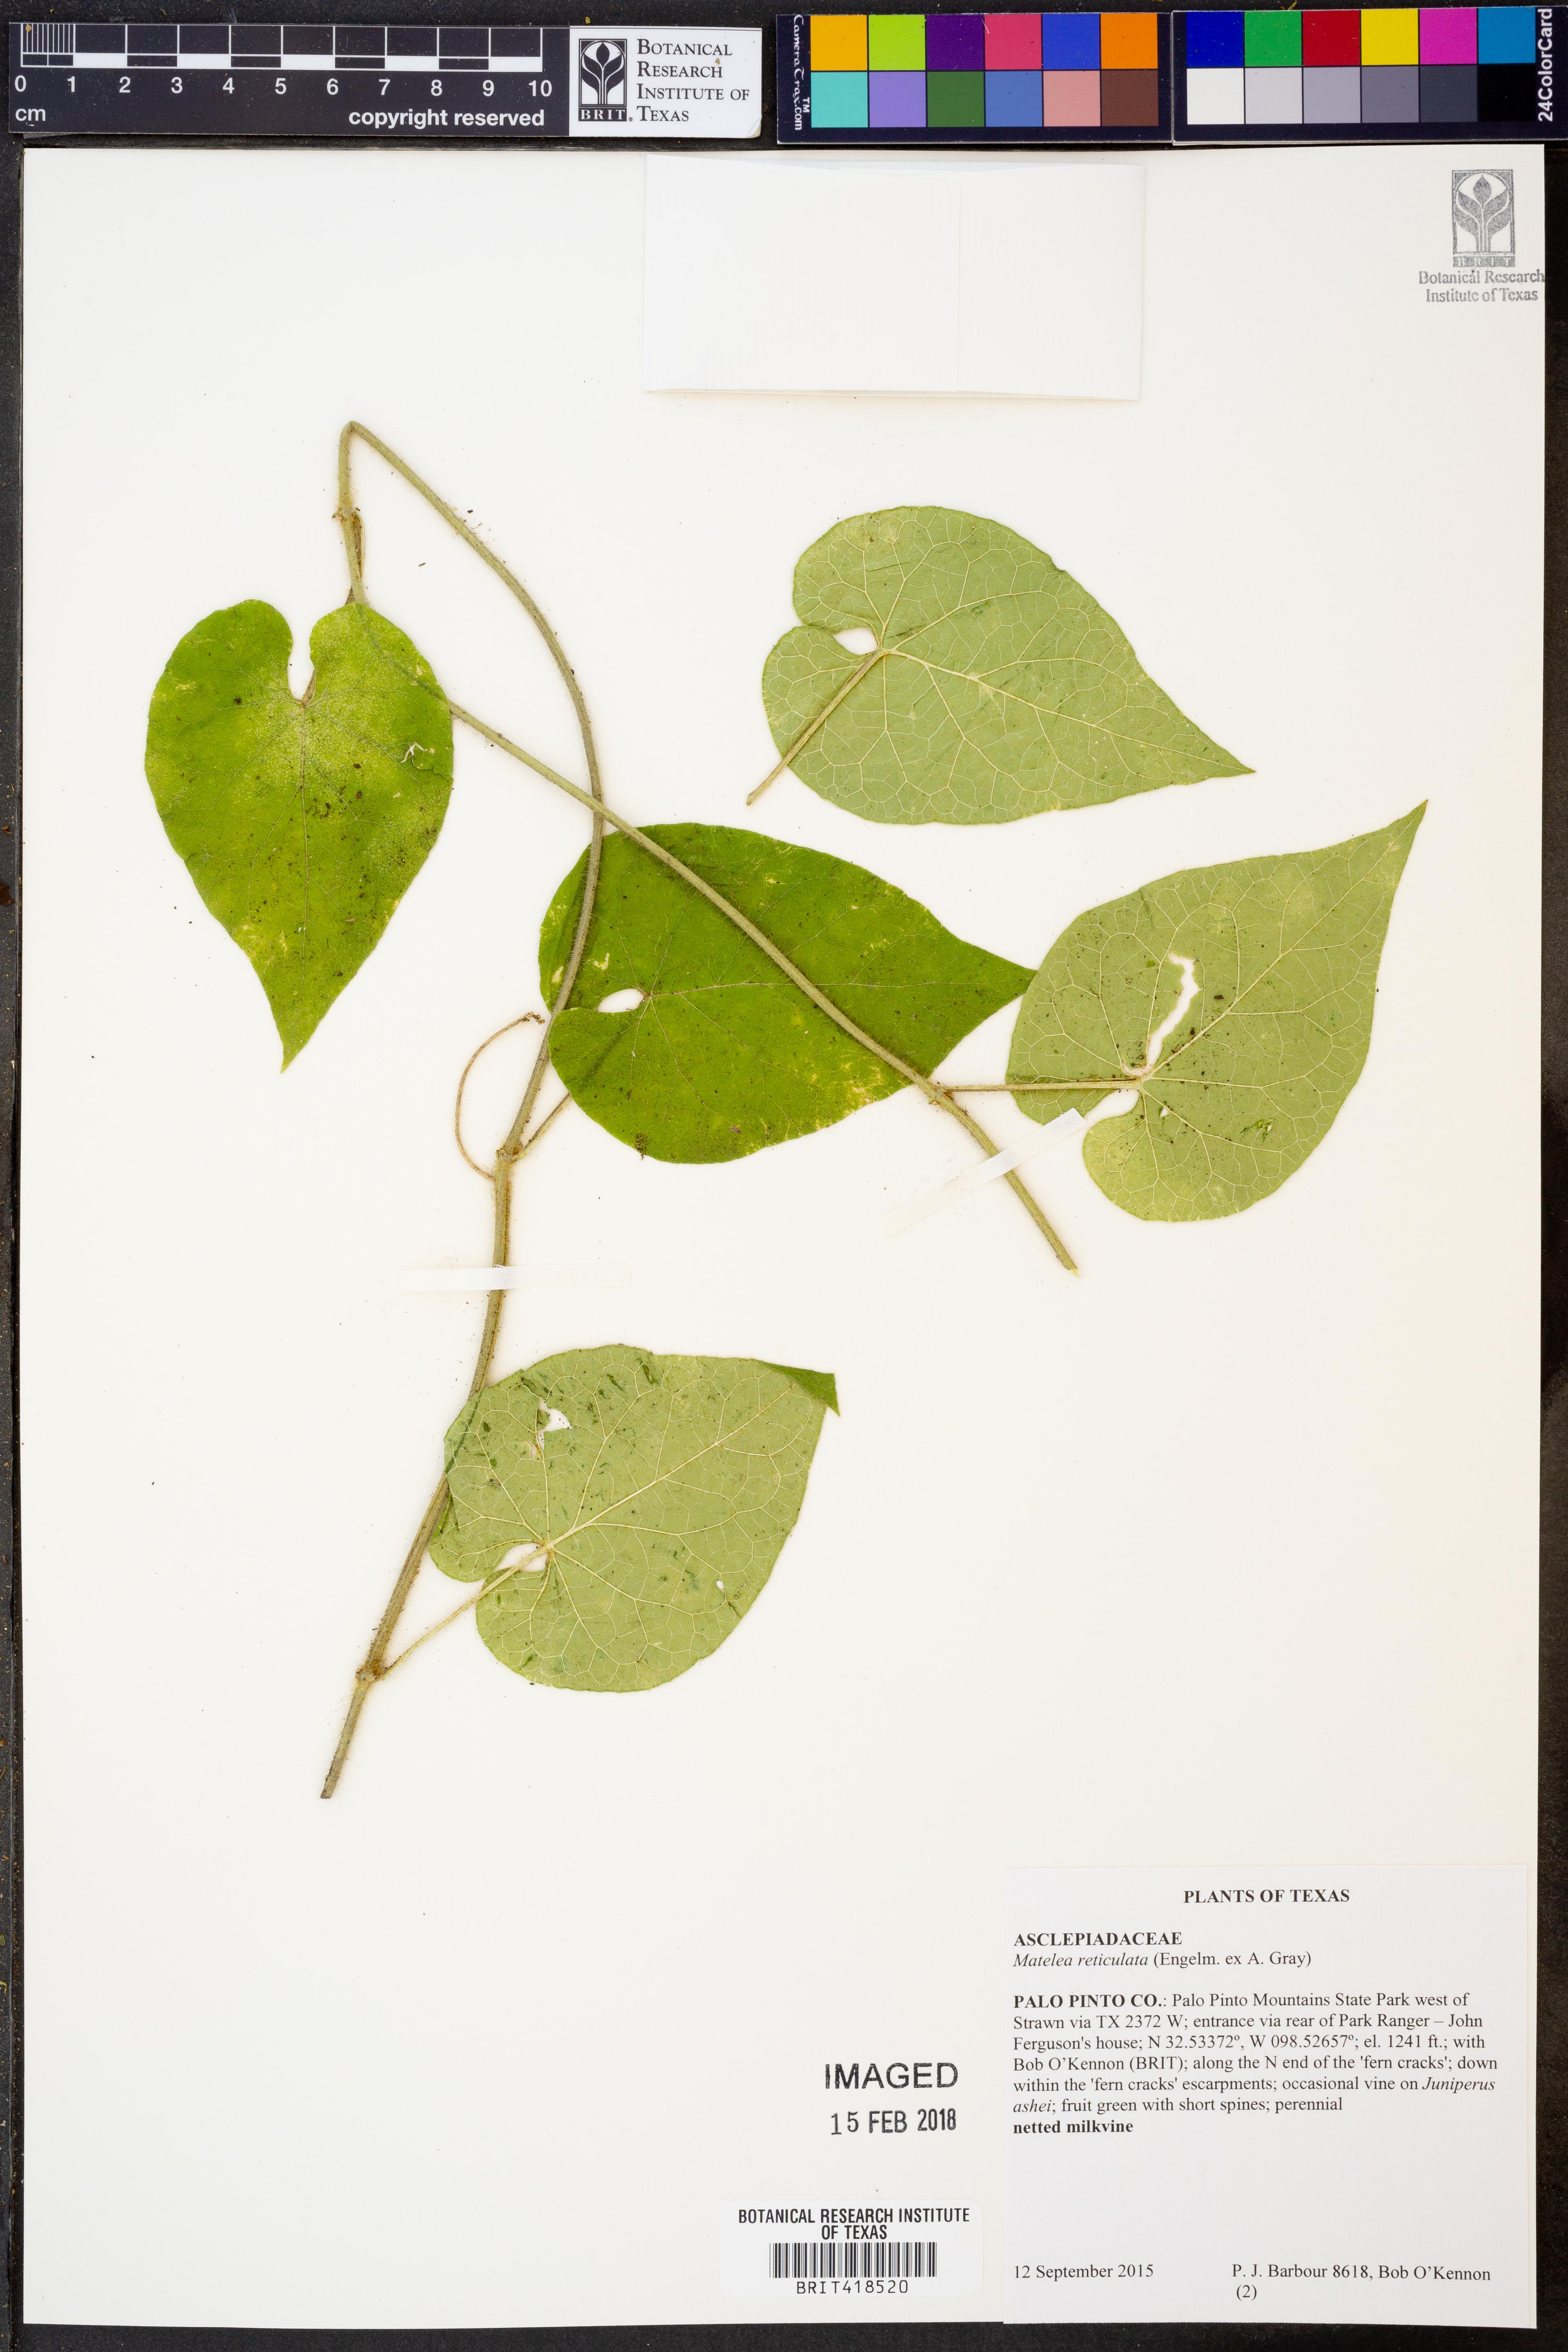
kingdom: Plantae
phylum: Tracheophyta
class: Magnoliopsida
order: Gentianales
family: Apocynaceae
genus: Dictyanthus
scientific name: Dictyanthus reticulatus
